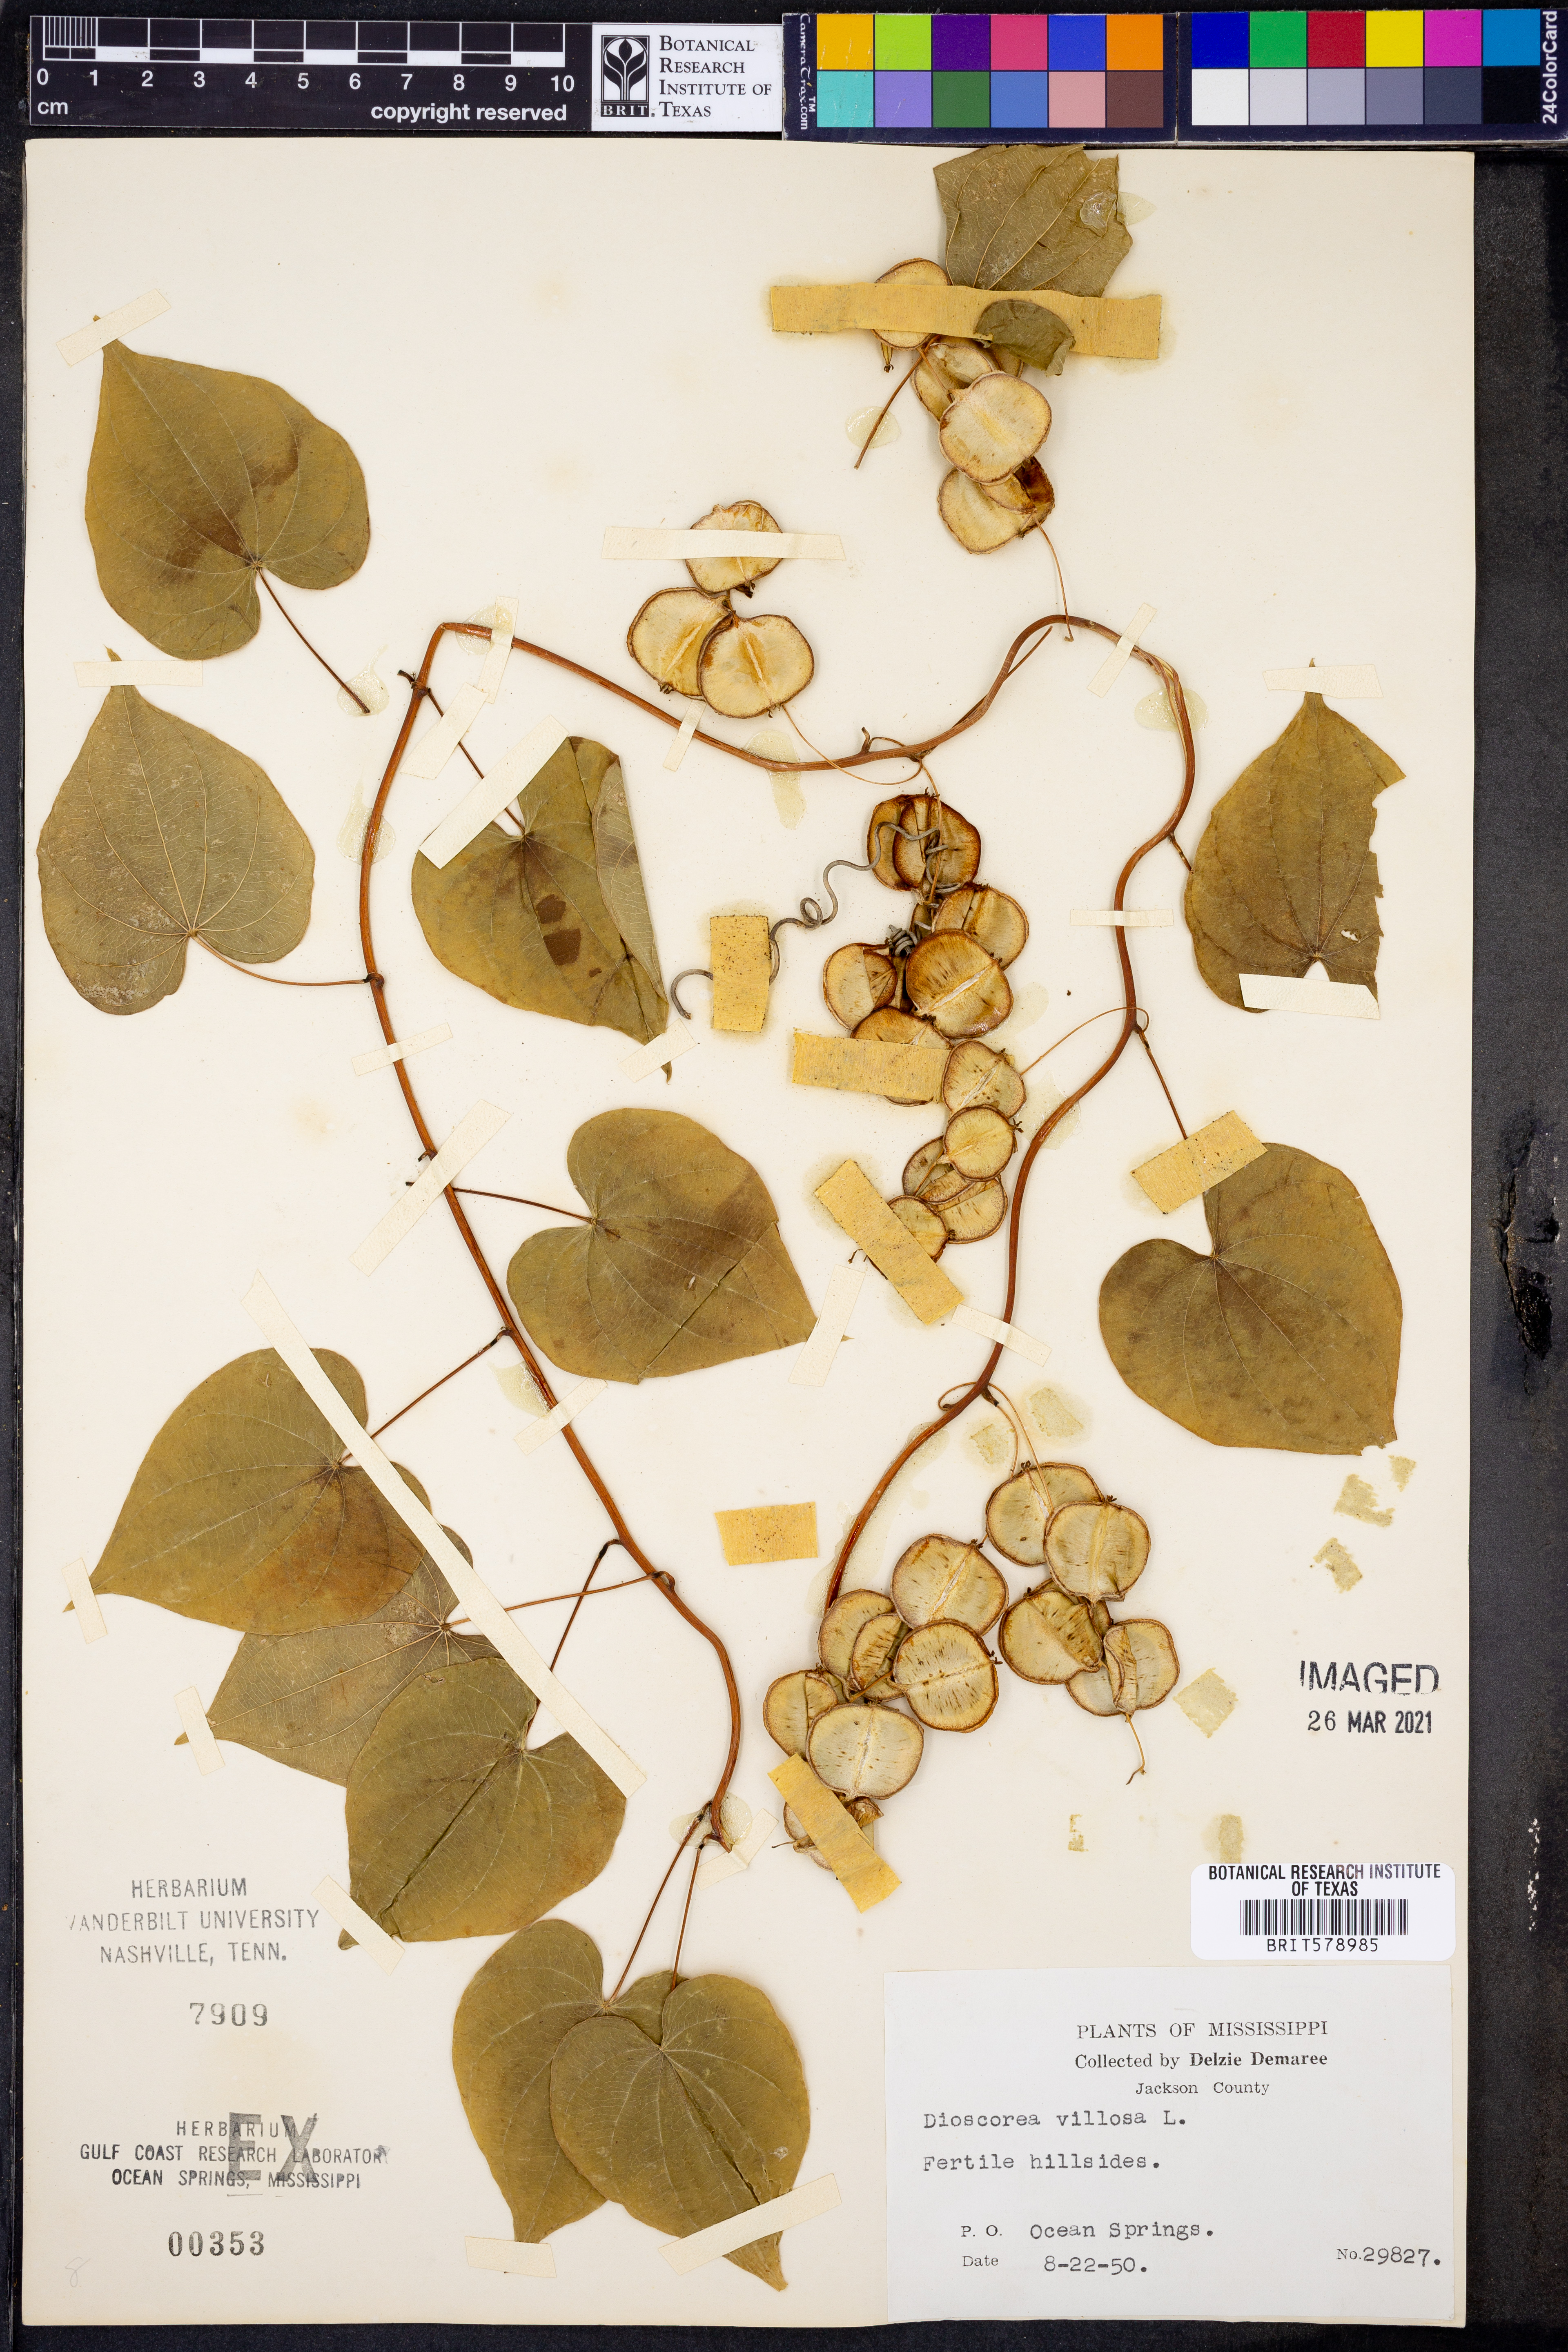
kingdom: Plantae
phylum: Tracheophyta
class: Liliopsida
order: Dioscoreales
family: Dioscoreaceae
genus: Dioscorea
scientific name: Dioscorea villosa
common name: Wild yam
